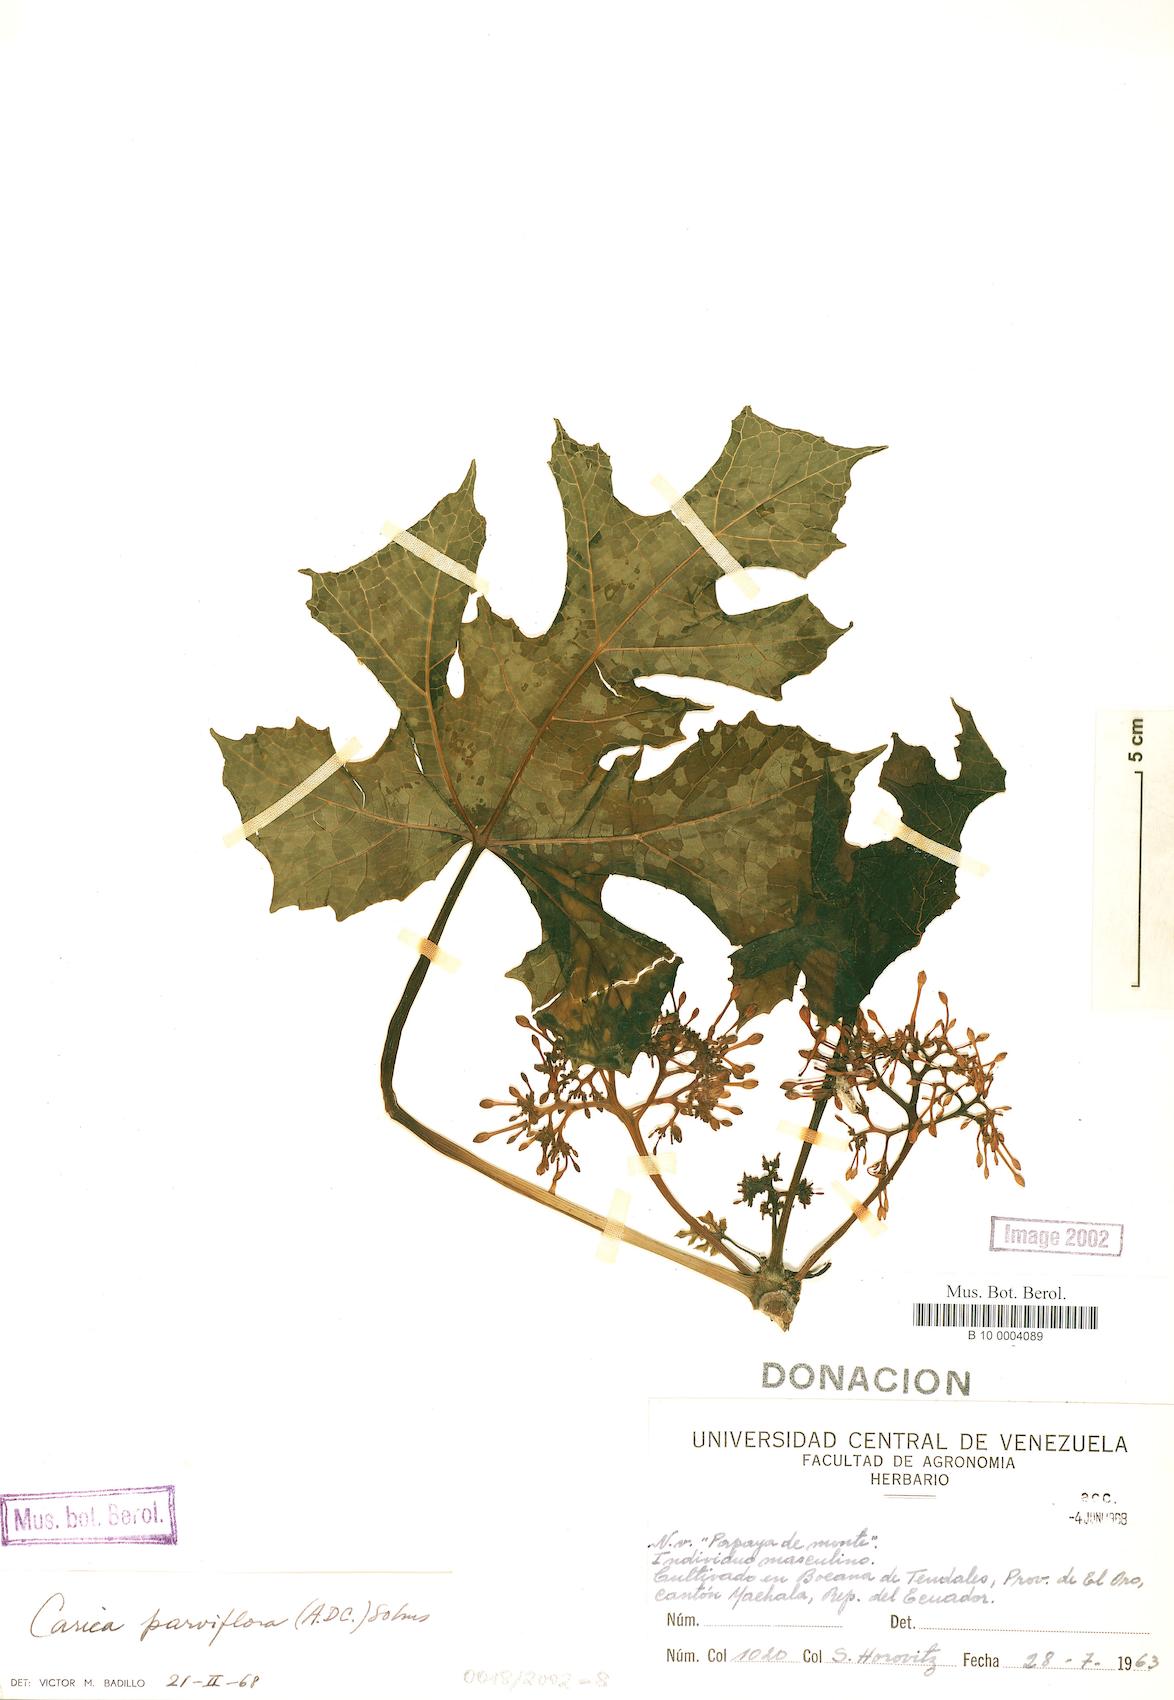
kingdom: Plantae
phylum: Tracheophyta
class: Magnoliopsida
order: Brassicales
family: Caricaceae
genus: Vasconcellea
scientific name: Vasconcellea parviflora
